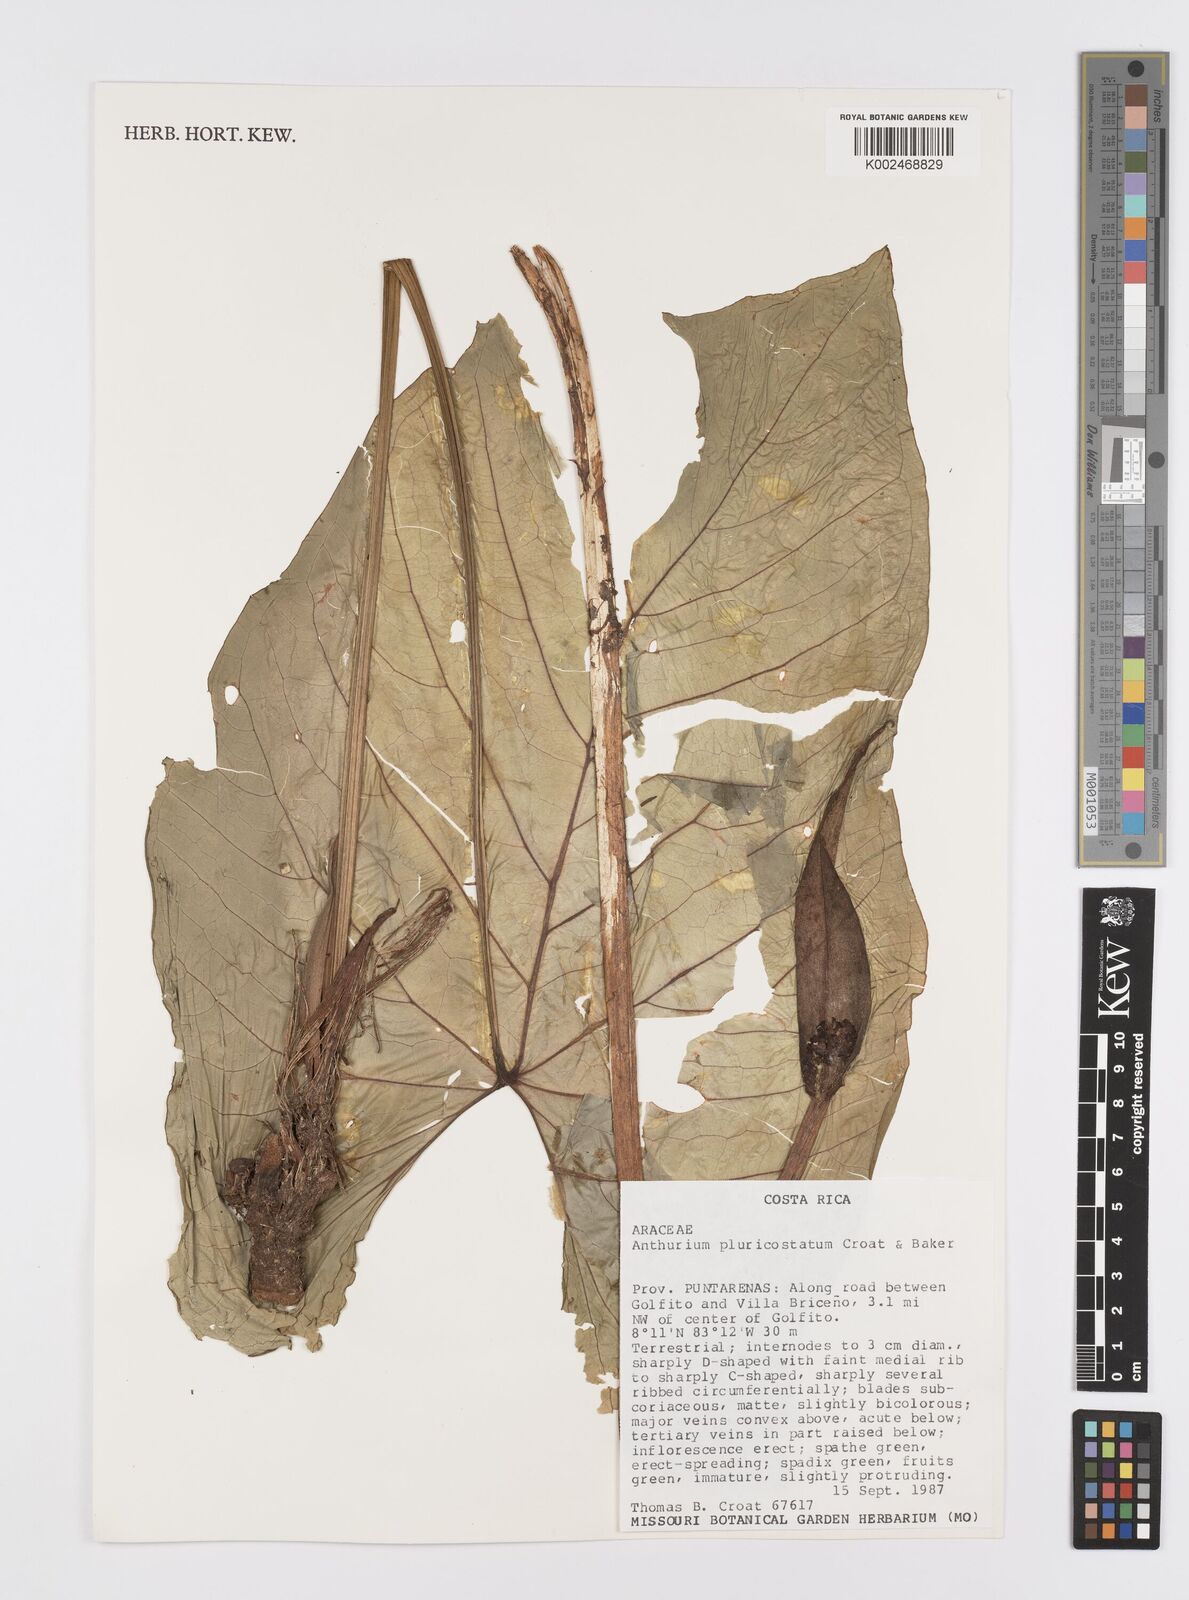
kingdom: Plantae
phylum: Tracheophyta
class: Liliopsida
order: Alismatales
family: Araceae
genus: Anthurium
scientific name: Anthurium ochranthum
